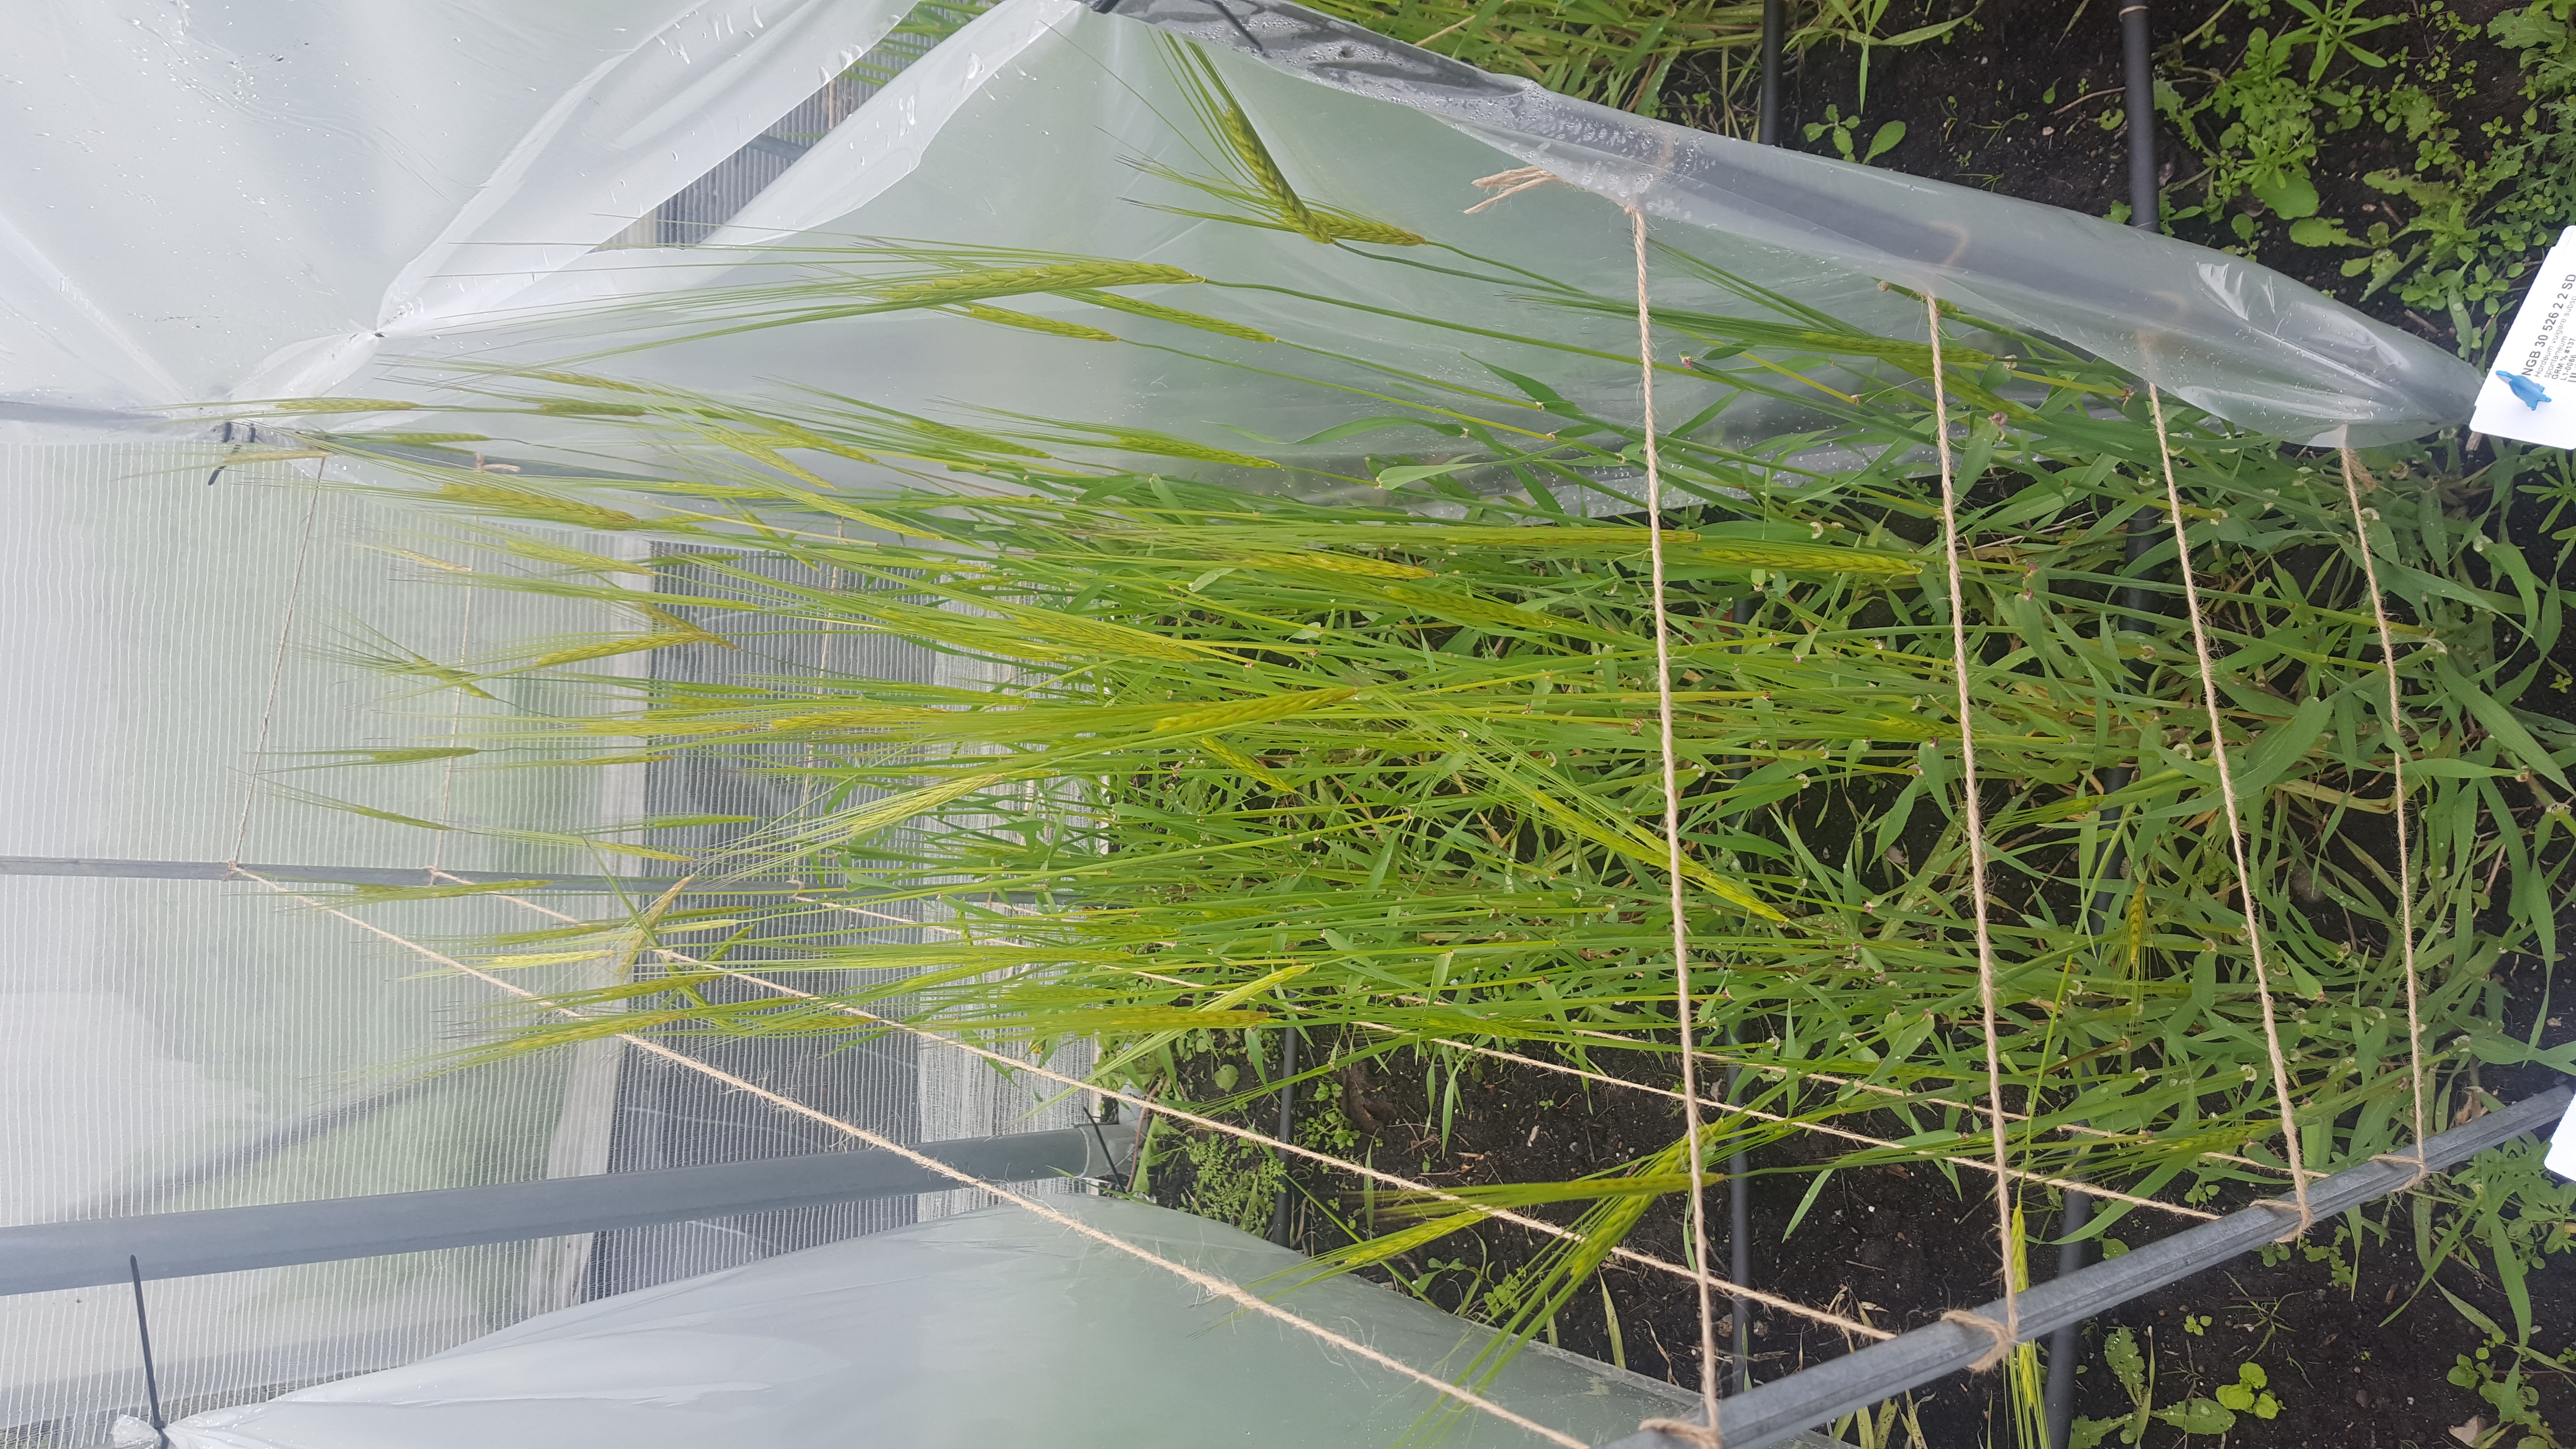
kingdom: Plantae
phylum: Tracheophyta
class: Liliopsida
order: Poales
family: Poaceae
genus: Hordeum
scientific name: Hordeum spontaneum
